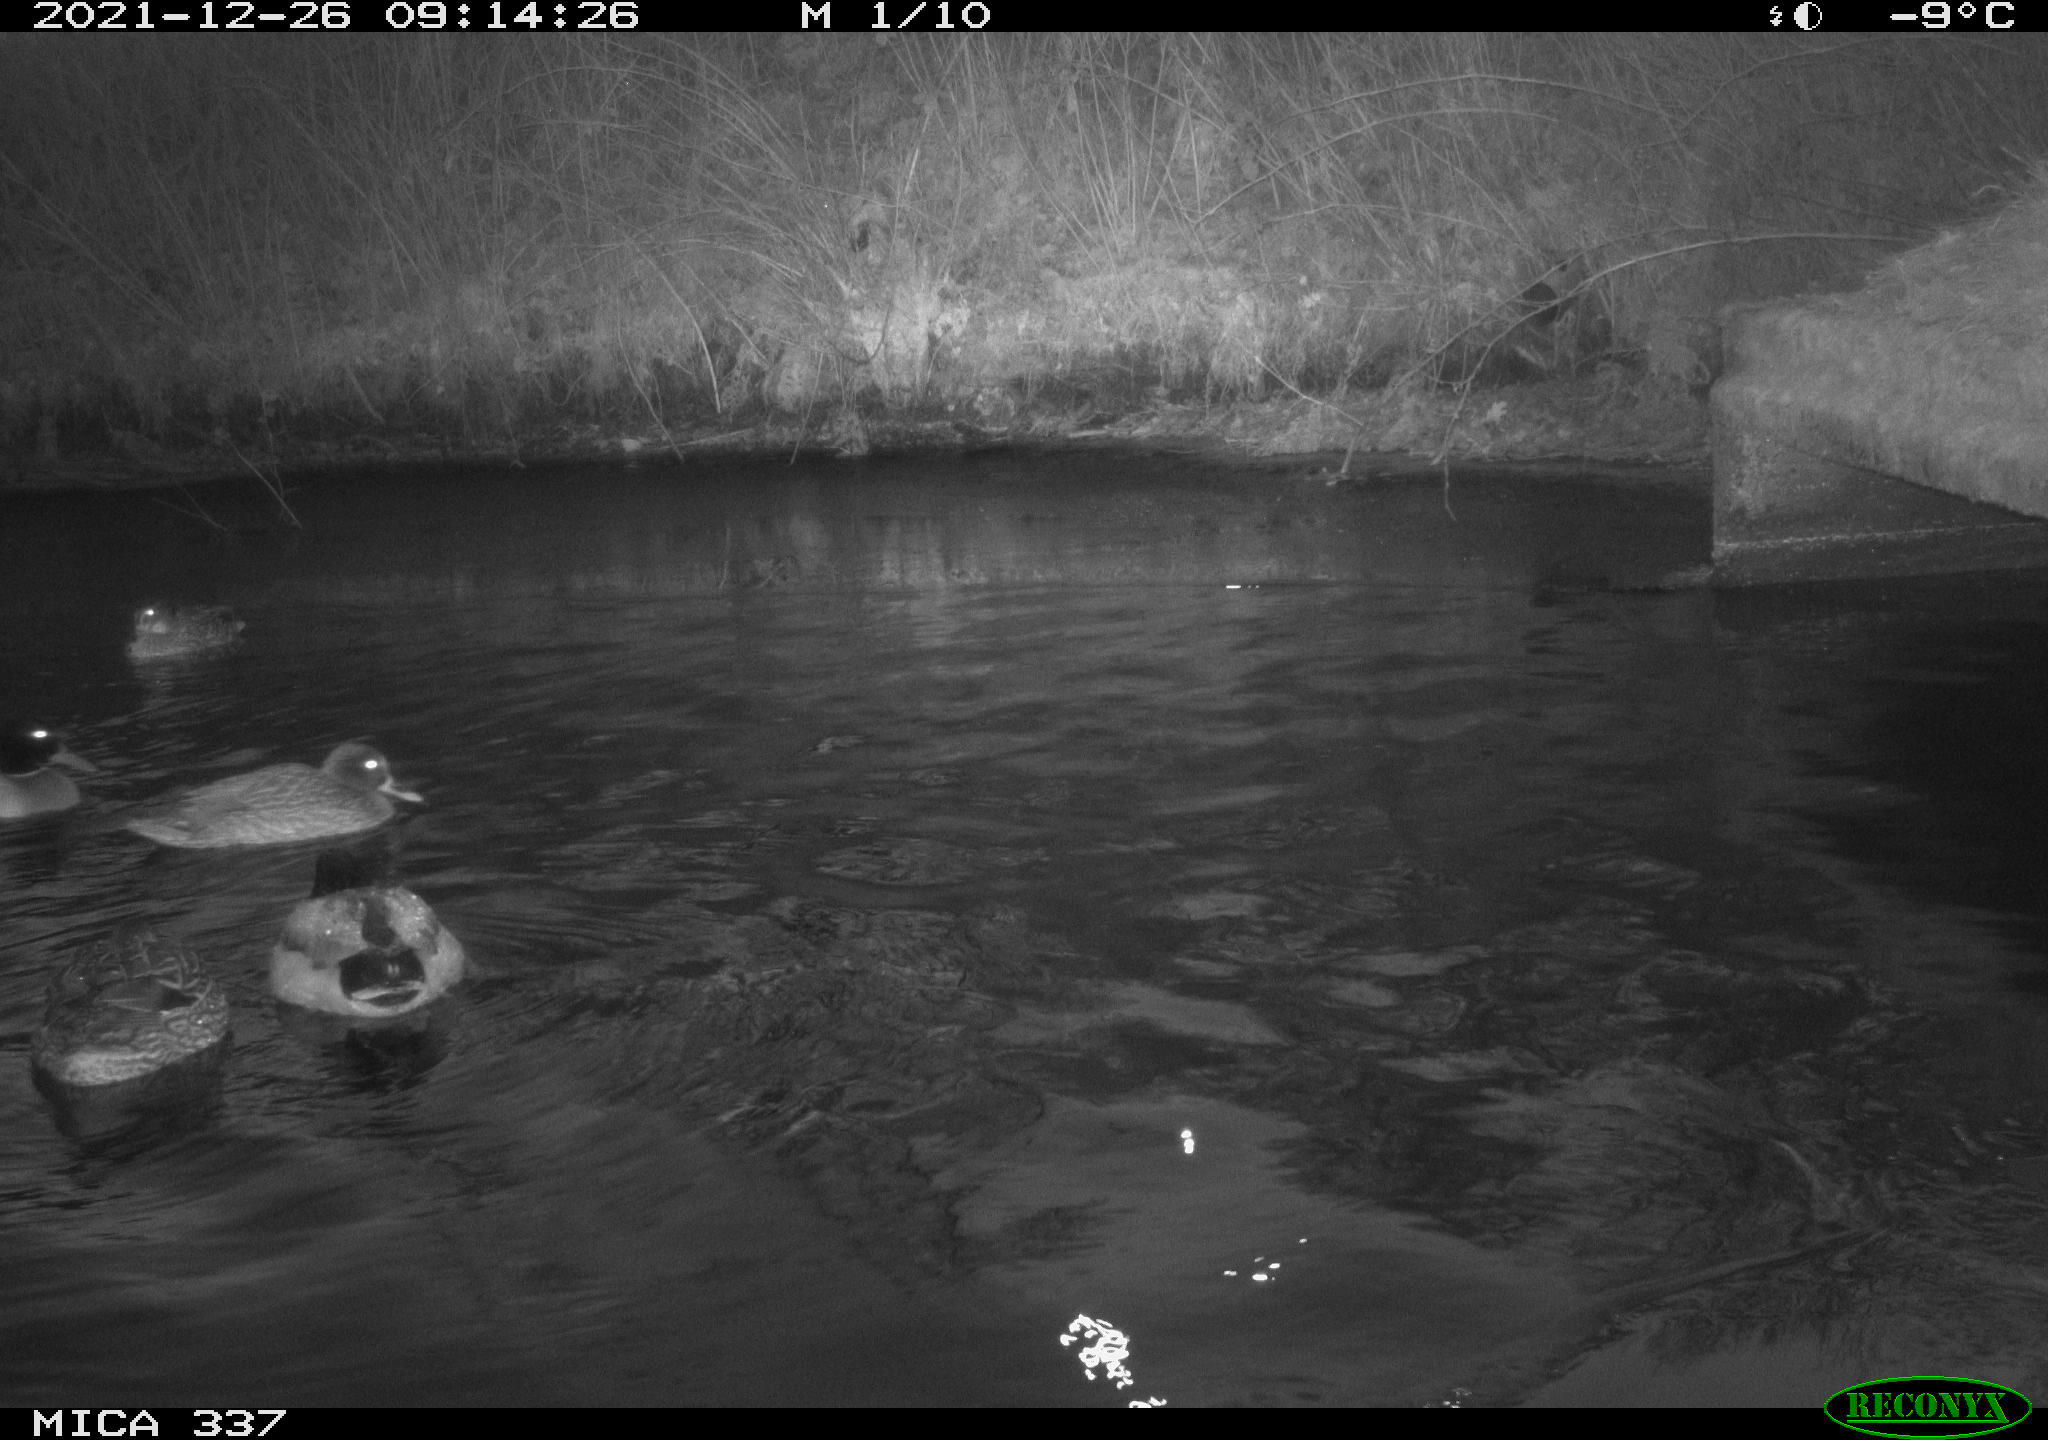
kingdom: Animalia
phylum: Chordata
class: Aves
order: Anseriformes
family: Anatidae
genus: Anas
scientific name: Anas platyrhynchos
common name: Mallard
